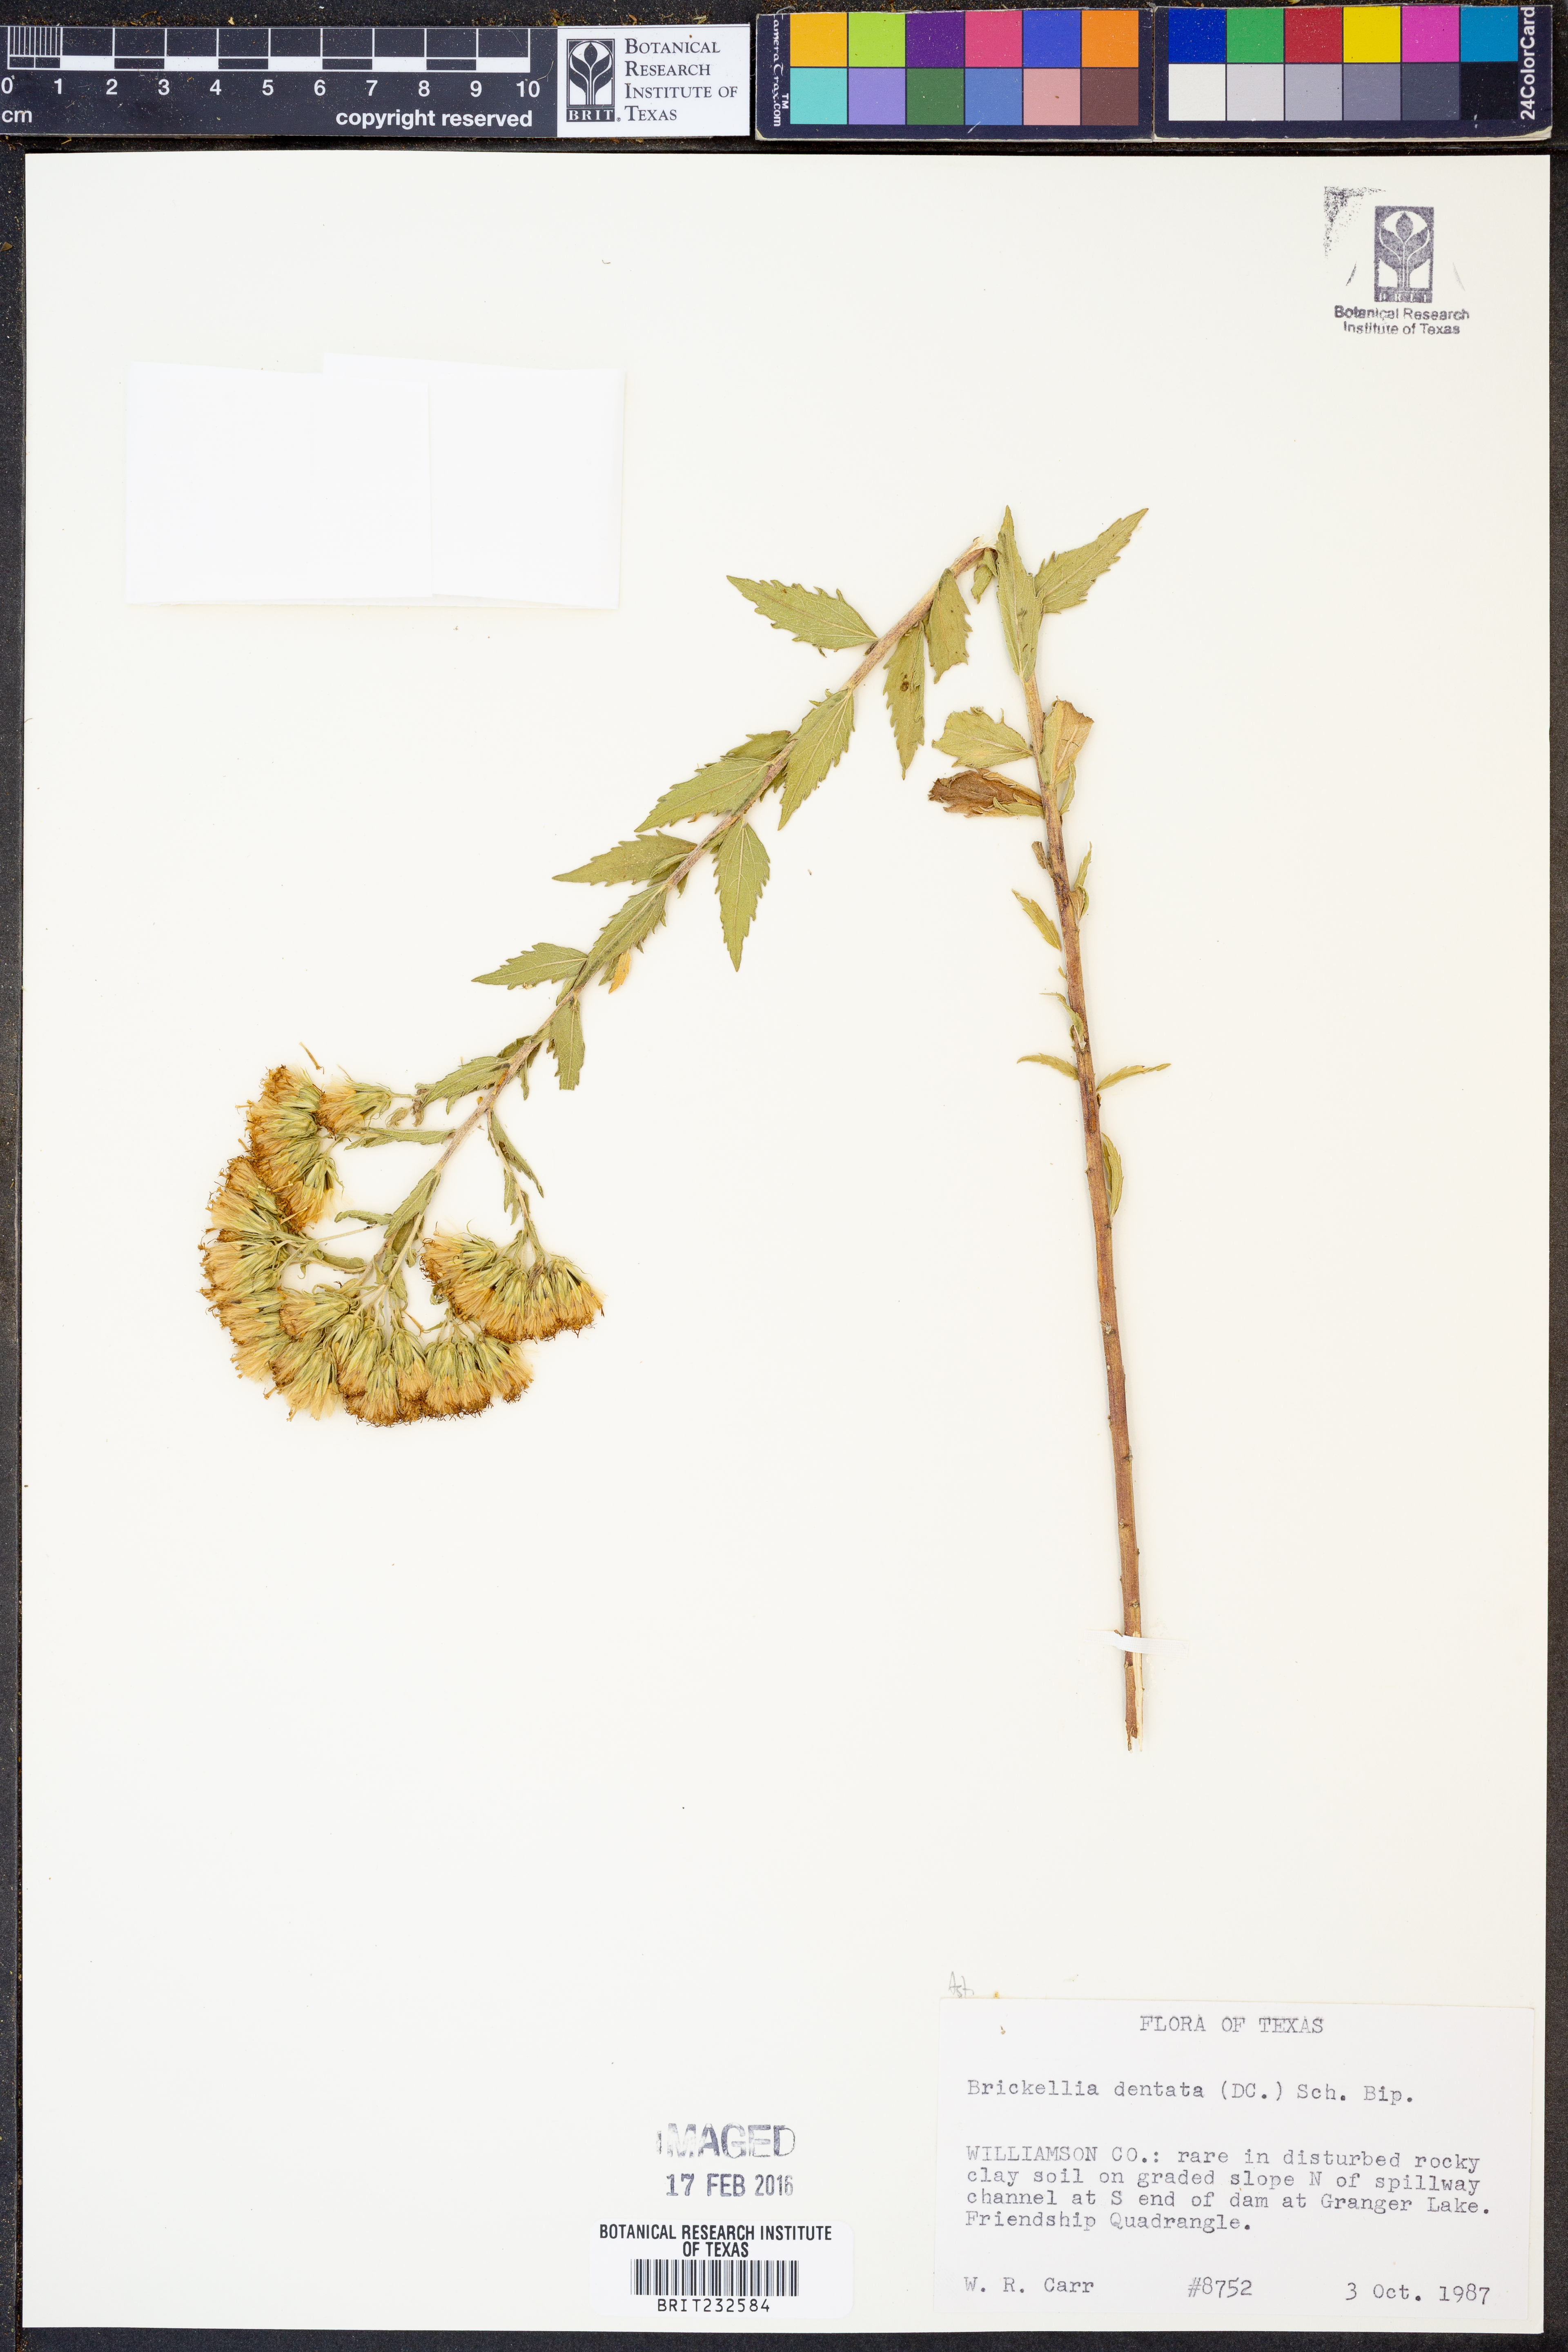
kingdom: Plantae
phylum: Tracheophyta
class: Magnoliopsida
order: Asterales
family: Asteraceae
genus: Brickellia
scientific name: Brickellia dentata
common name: Leafy brickellbush
